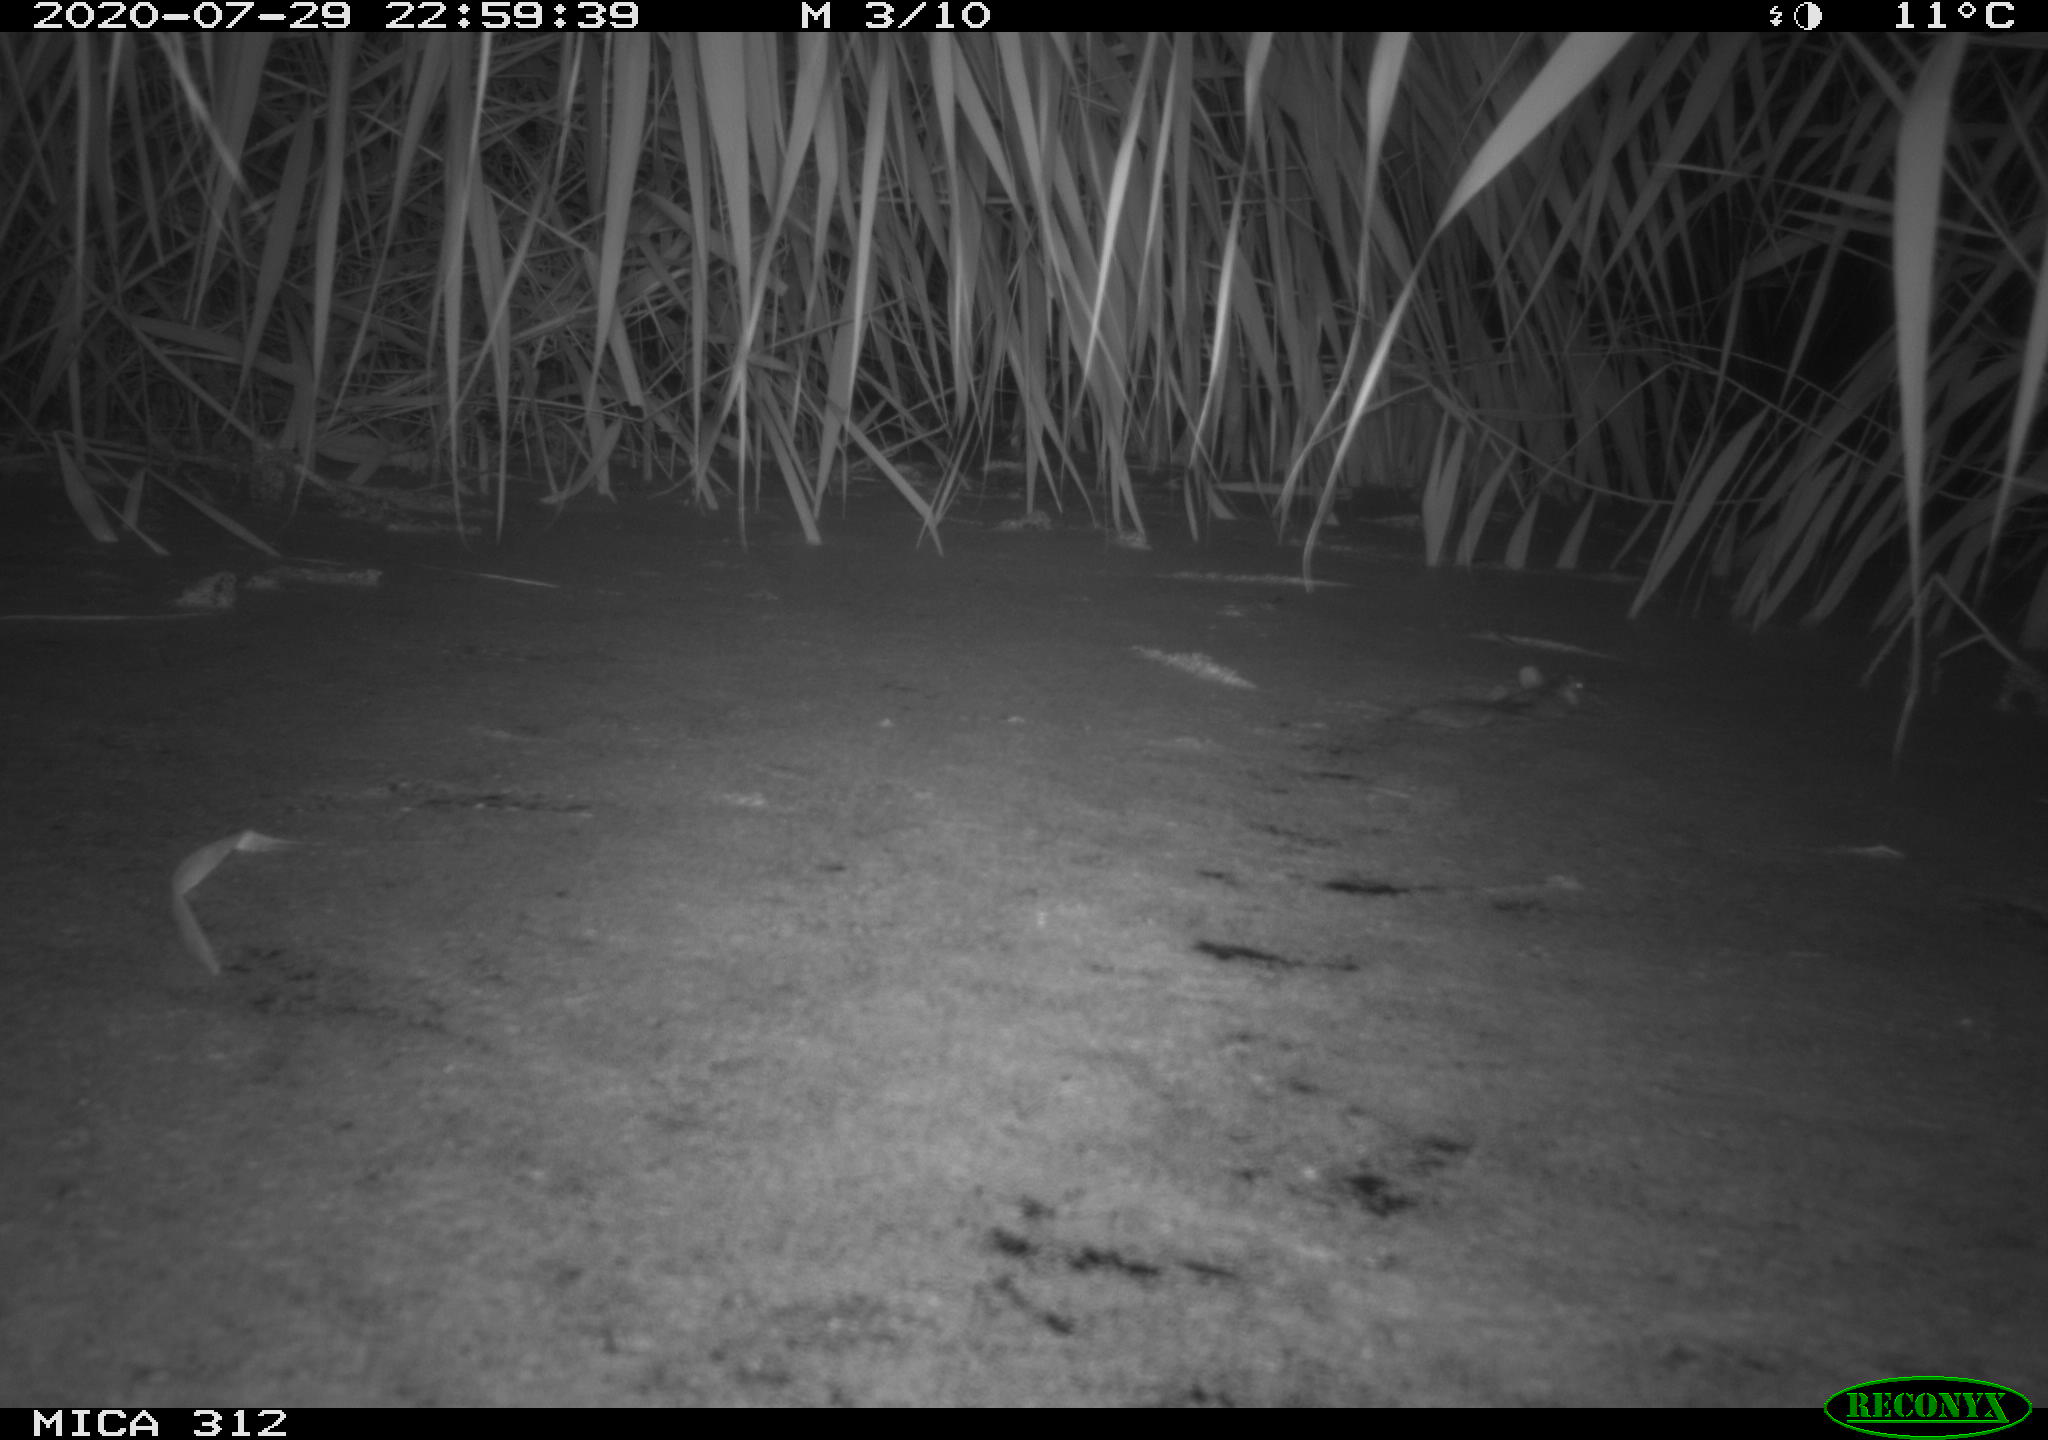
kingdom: Animalia
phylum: Chordata
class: Mammalia
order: Rodentia
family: Muridae
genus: Rattus
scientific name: Rattus norvegicus
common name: Brown rat
